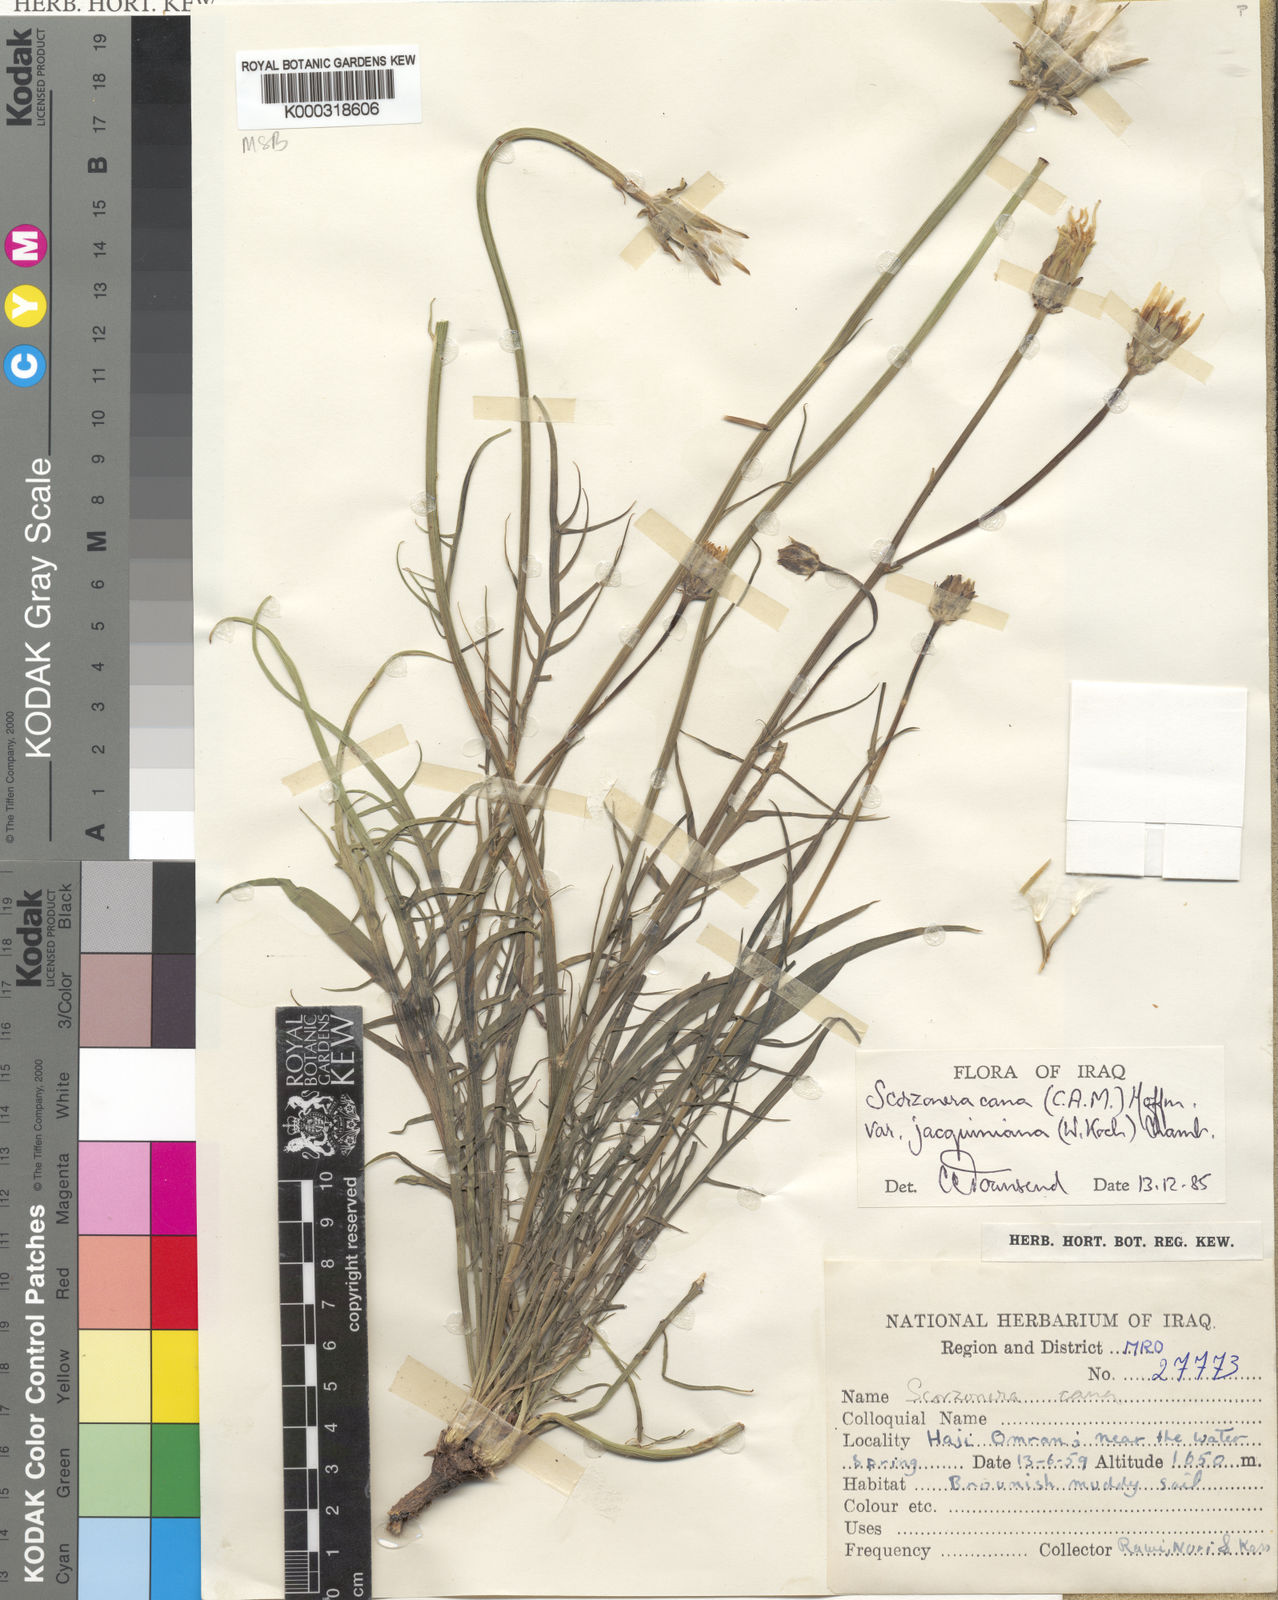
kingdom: Plantae
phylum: Tracheophyta
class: Magnoliopsida
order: Asterales
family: Asteraceae
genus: Scorzonera
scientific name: Scorzonera cana
